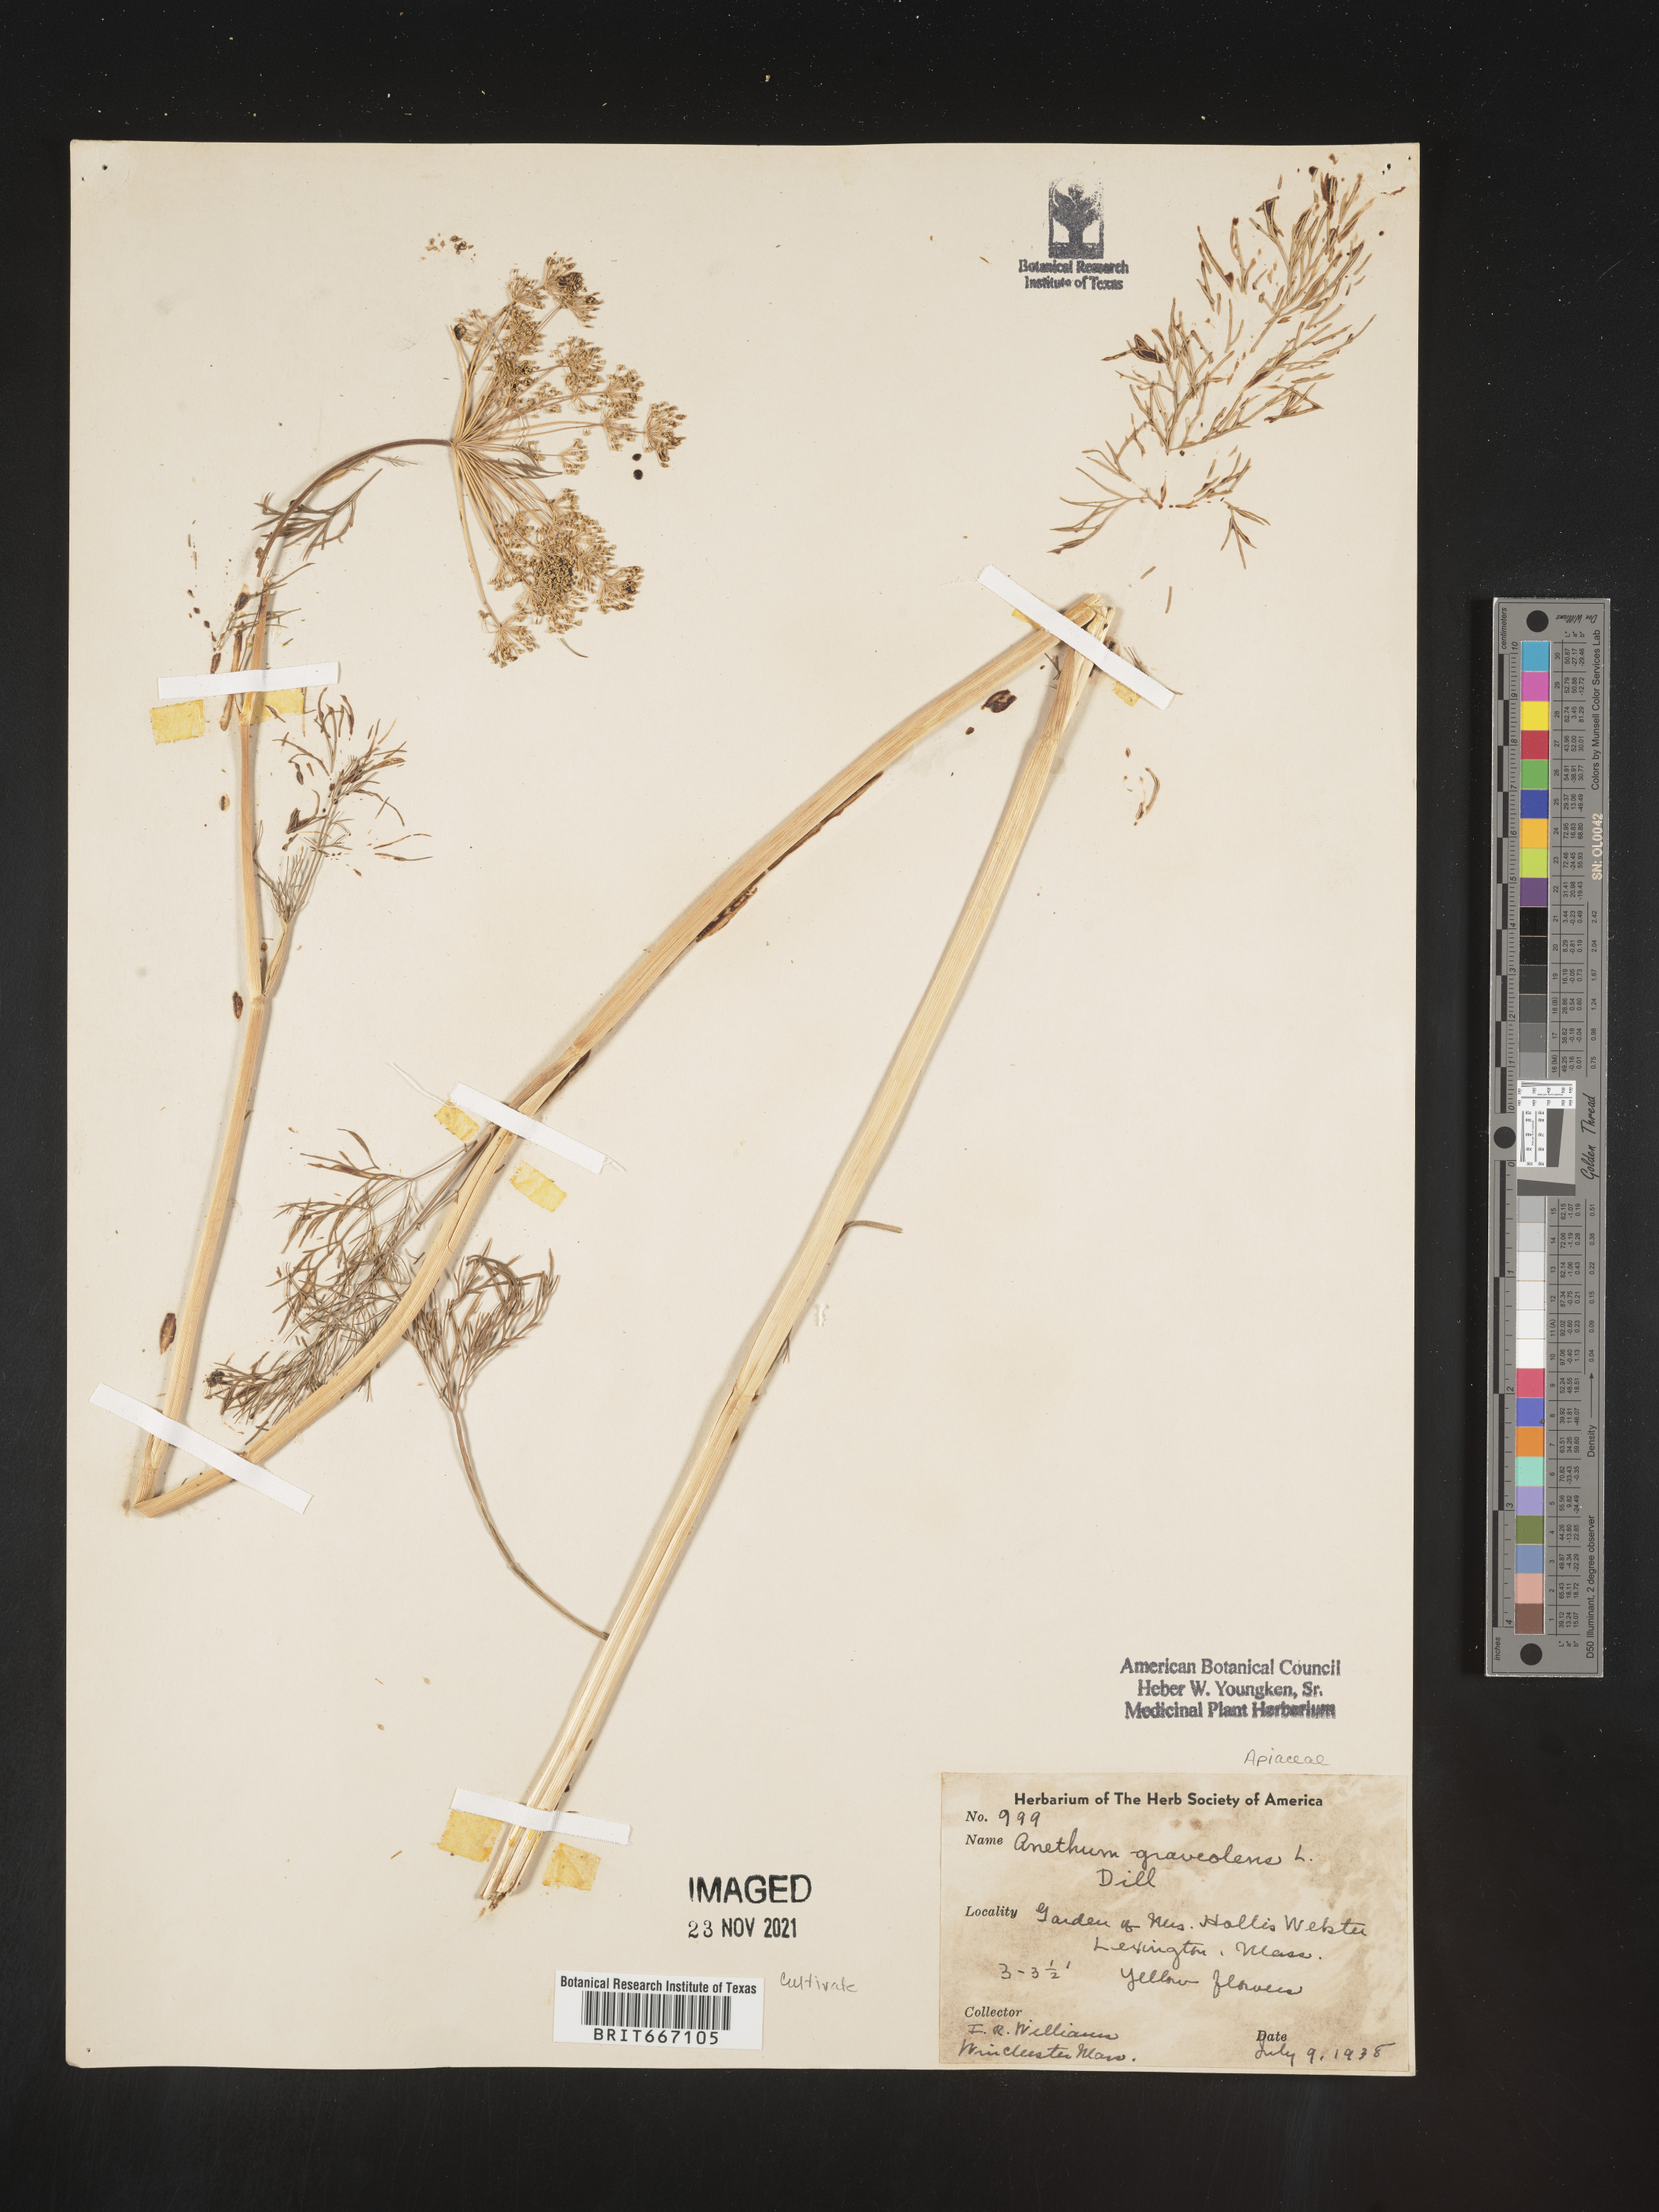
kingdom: Plantae
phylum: Tracheophyta
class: Magnoliopsida
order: Apiales
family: Apiaceae
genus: Anethum
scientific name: Anethum
